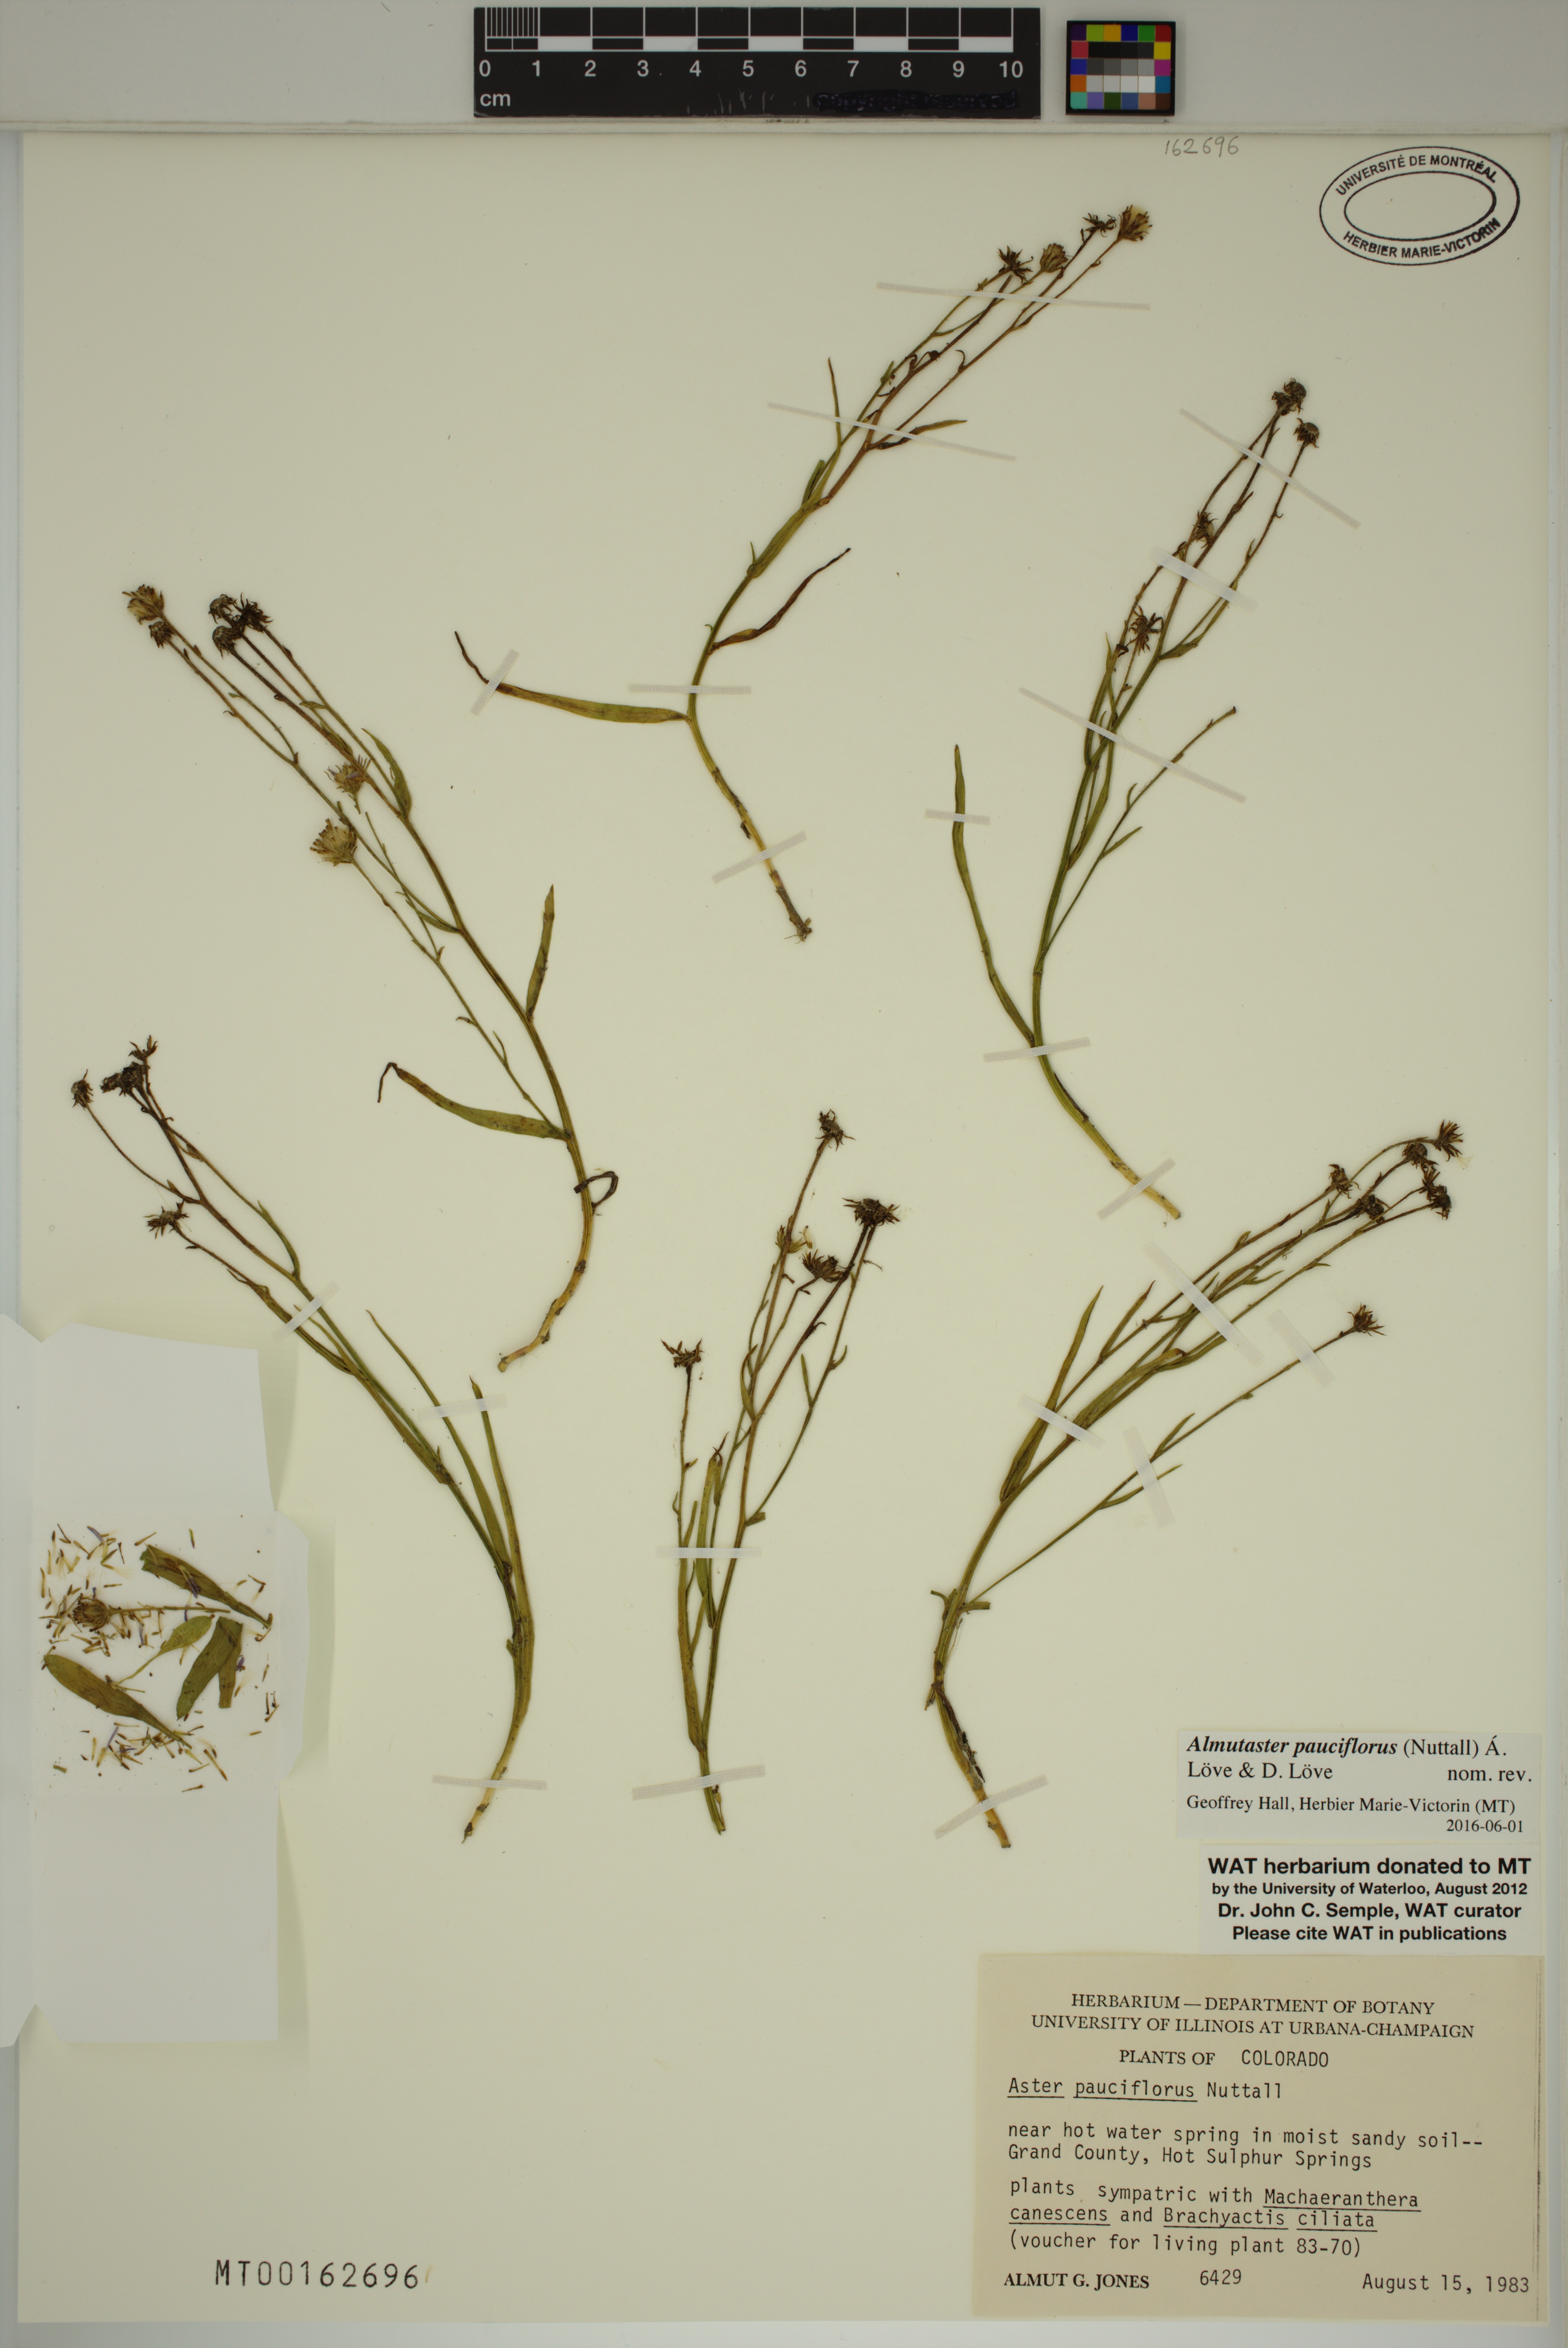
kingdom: Plantae
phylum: Tracheophyta
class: Magnoliopsida
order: Asterales
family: Asteraceae
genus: Almutaster
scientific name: Almutaster pauciflorus
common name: Alkaline aster
